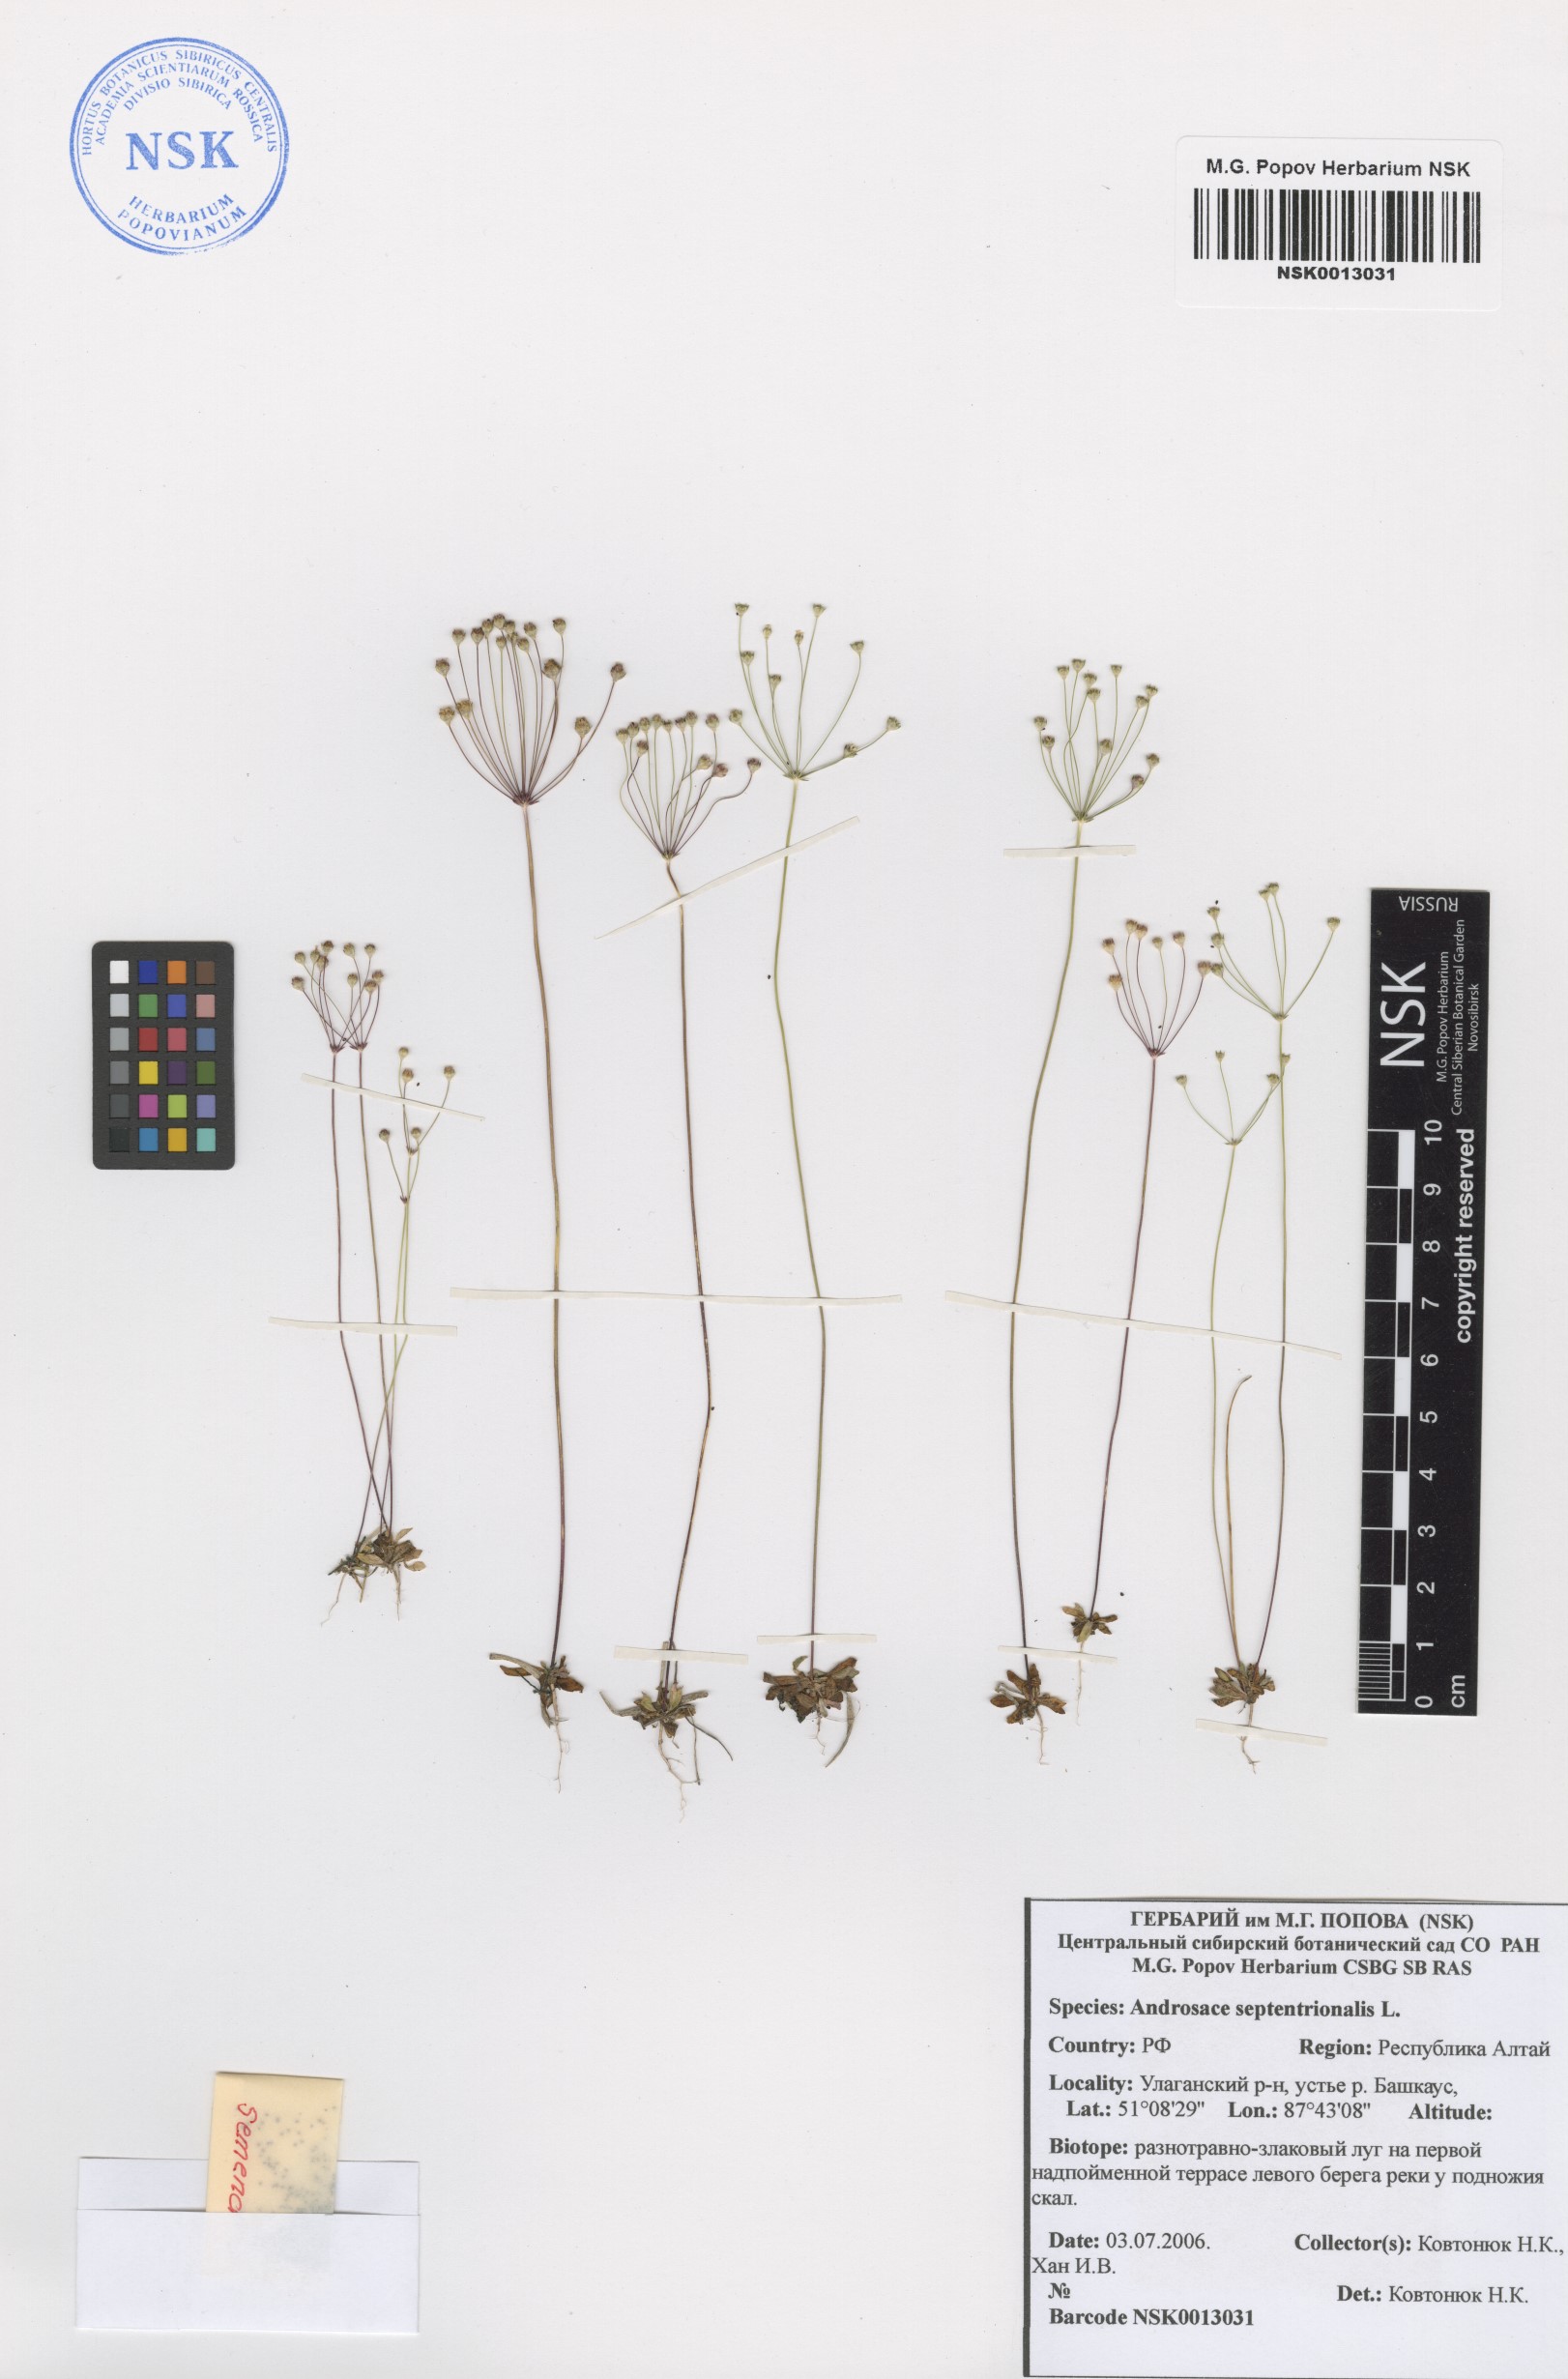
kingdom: Plantae
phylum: Tracheophyta
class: Magnoliopsida
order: Ericales
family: Primulaceae
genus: Androsace
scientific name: Androsace septentrionalis
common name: Hairy northern fairy-candelabra
